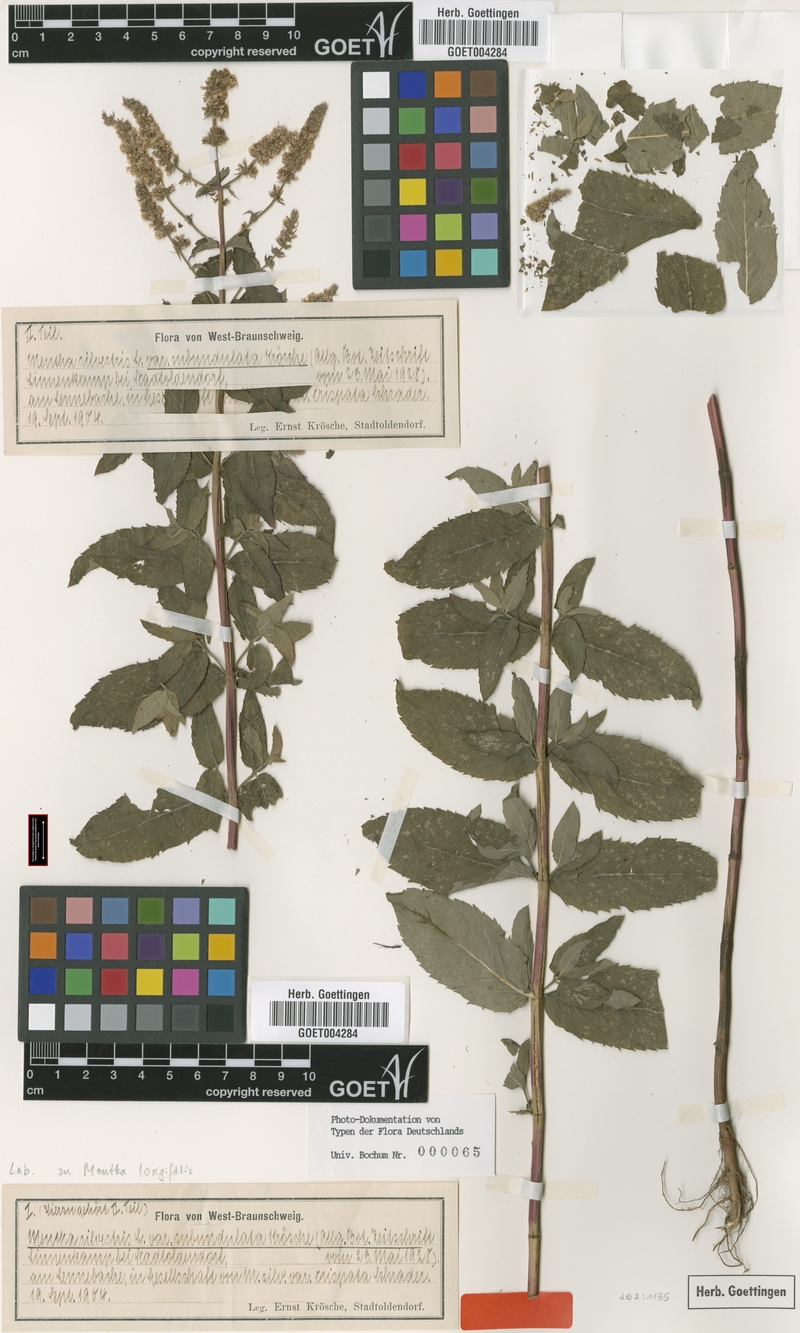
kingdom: Plantae
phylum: Tracheophyta
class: Magnoliopsida
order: Lamiales
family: Lamiaceae
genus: Mentha
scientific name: Mentha longifolia
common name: Horse mint
